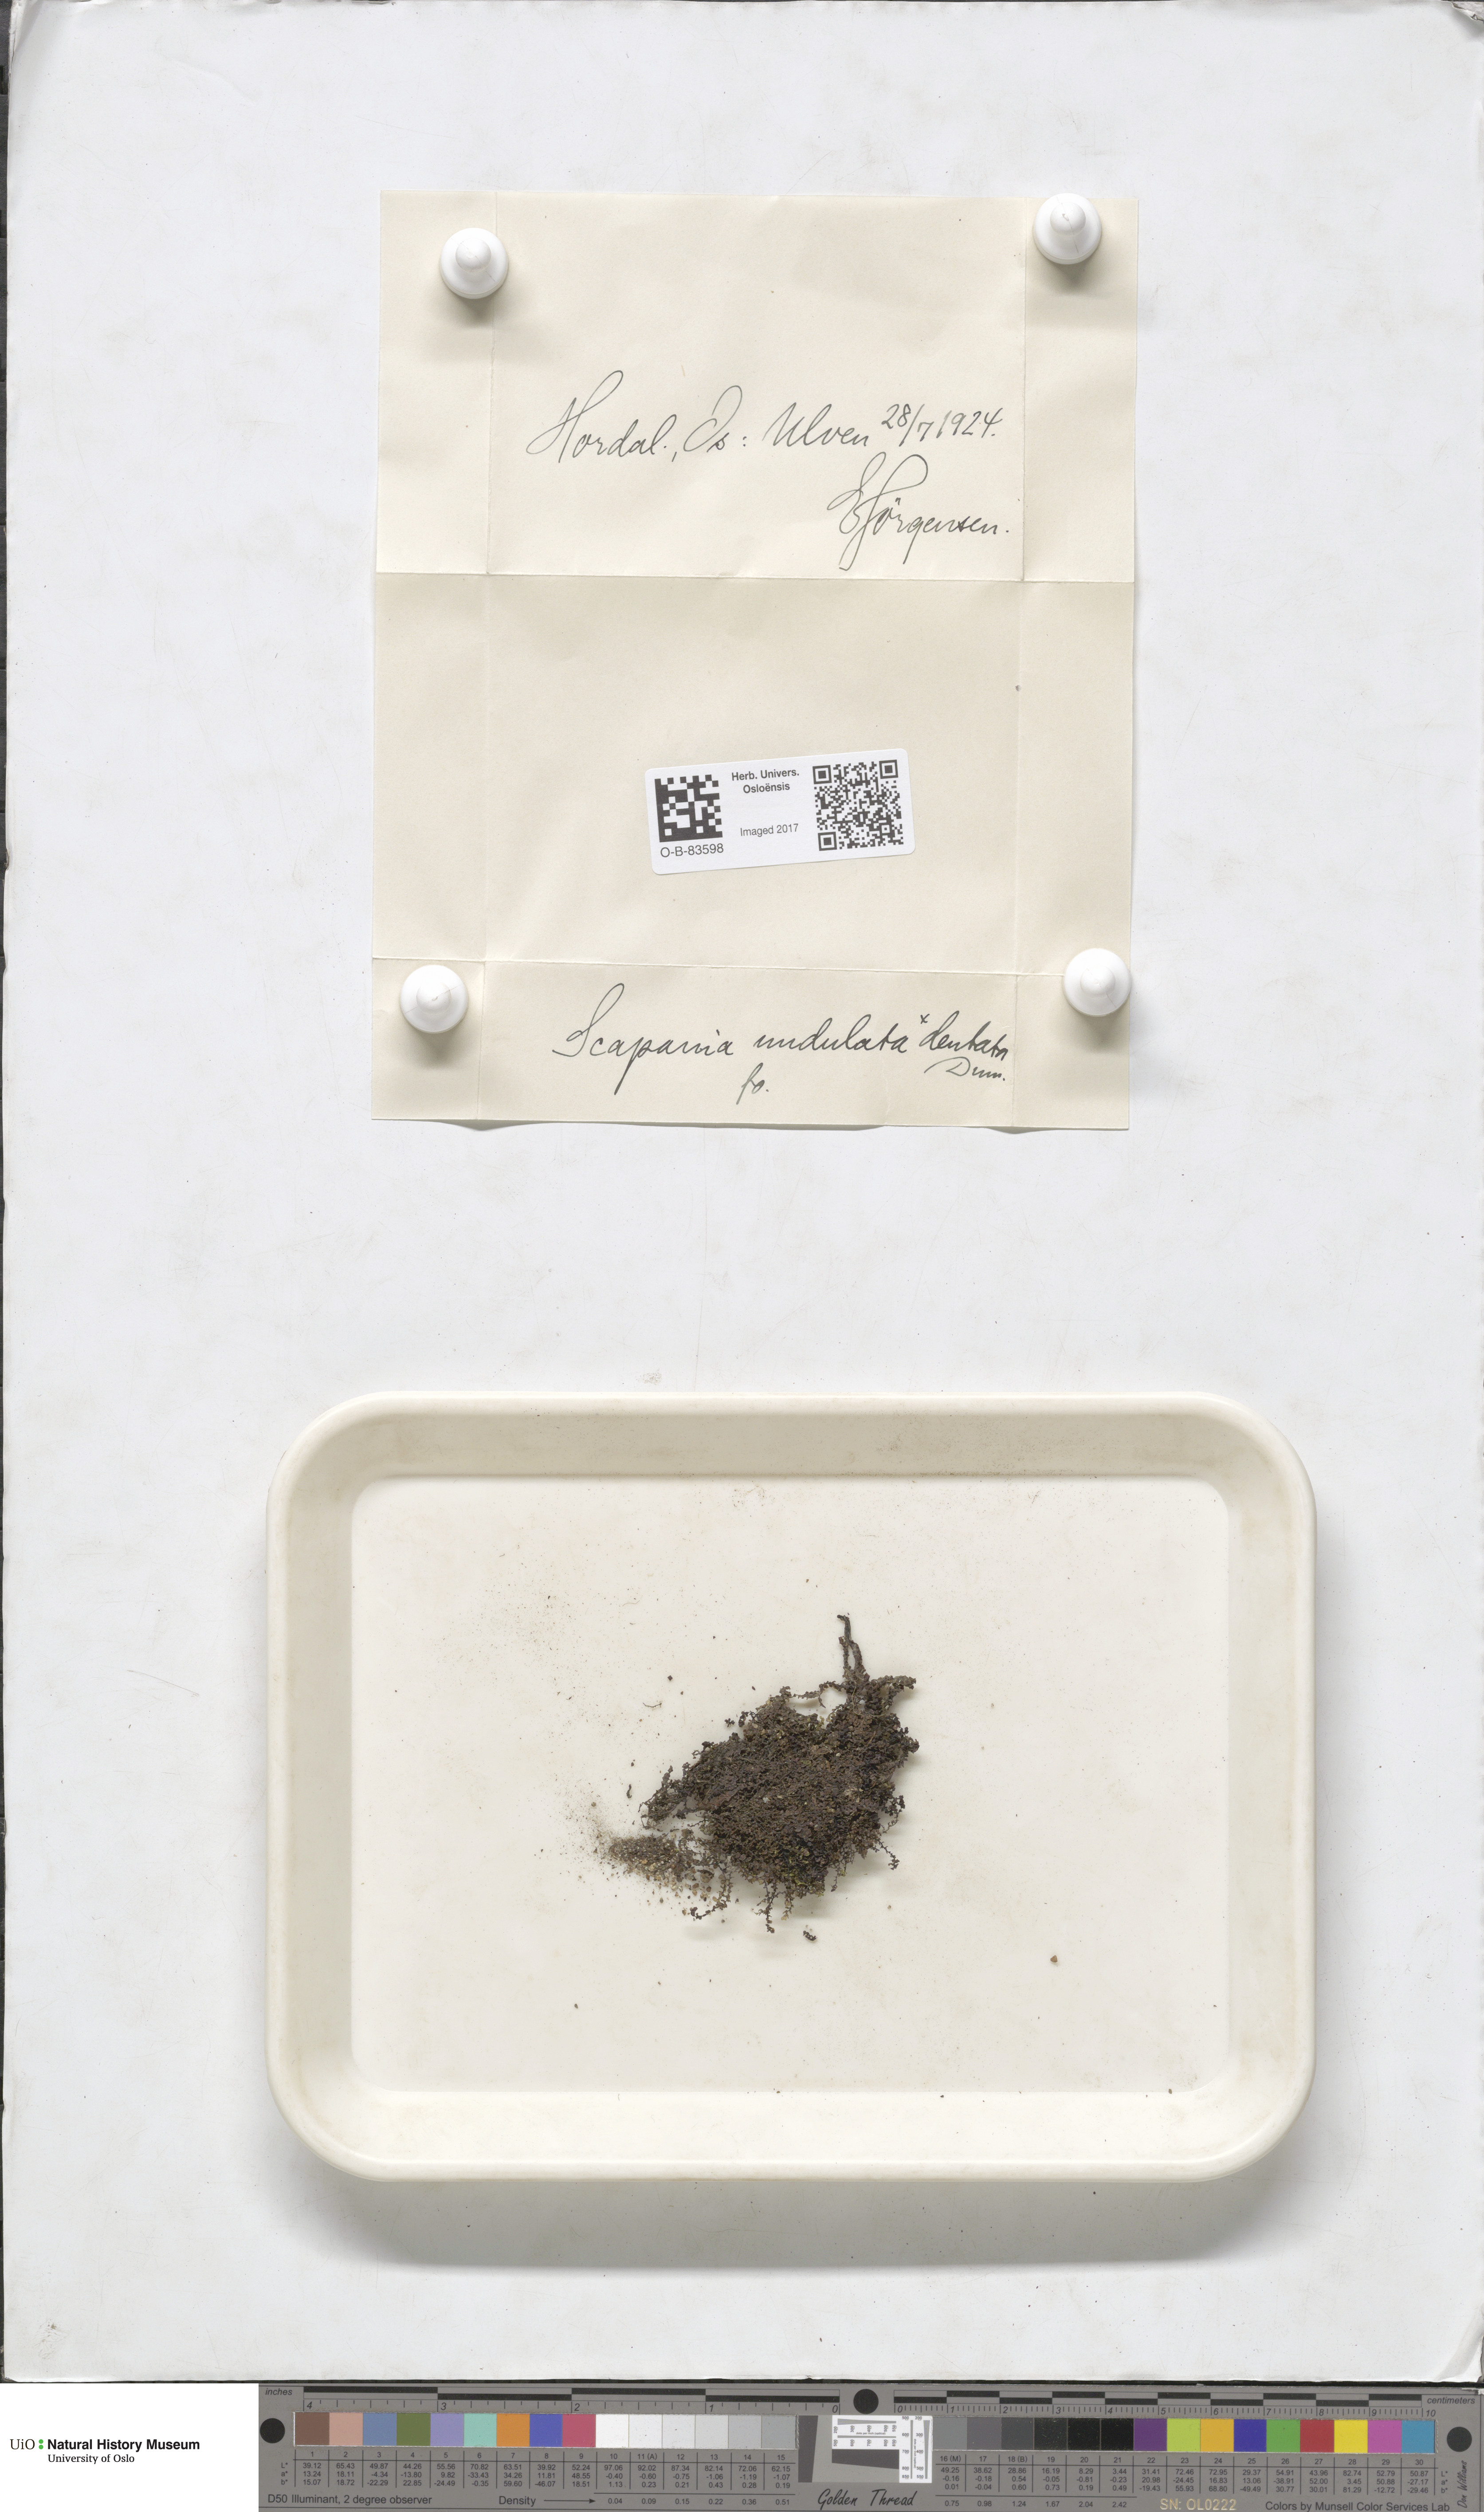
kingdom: Plantae
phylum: Marchantiophyta
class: Jungermanniopsida
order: Jungermanniales
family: Scapaniaceae
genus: Scapania
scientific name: Scapania undulata
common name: Water earwort
